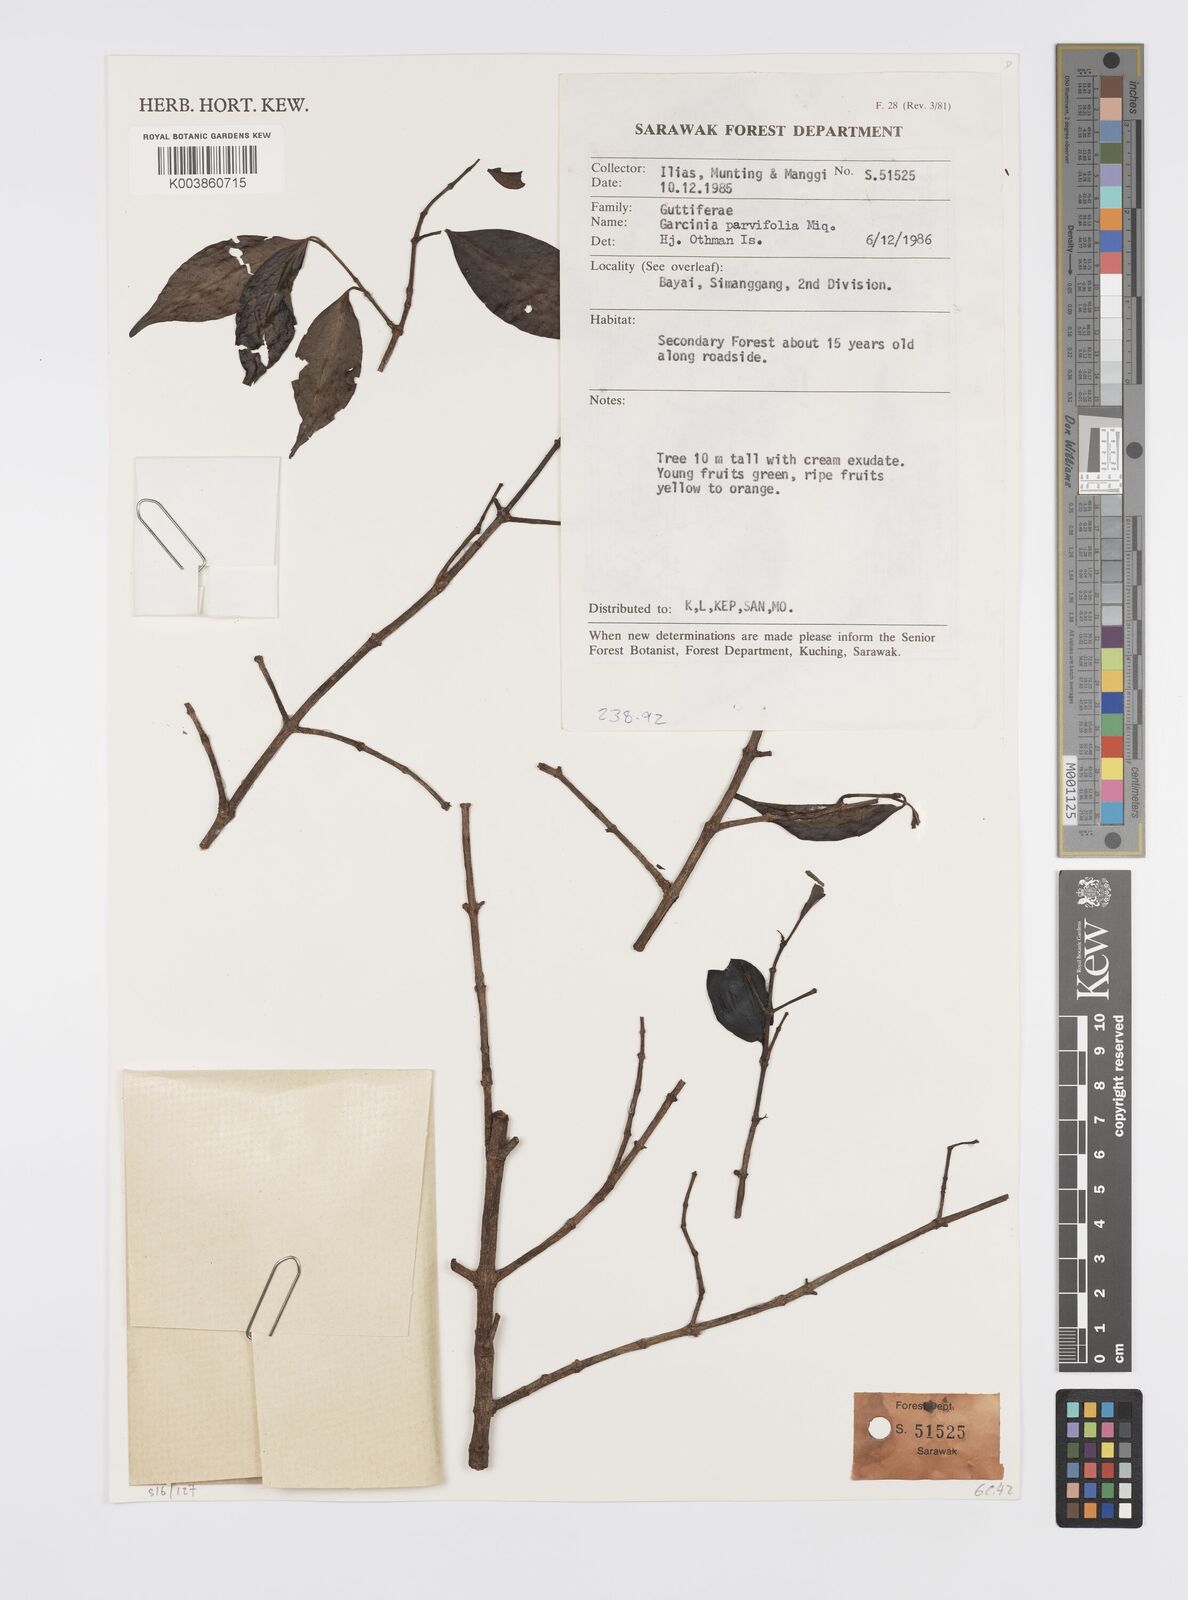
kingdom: Plantae
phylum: Tracheophyta
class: Magnoliopsida
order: Malpighiales
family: Clusiaceae
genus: Garcinia
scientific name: Garcinia parvifolia
